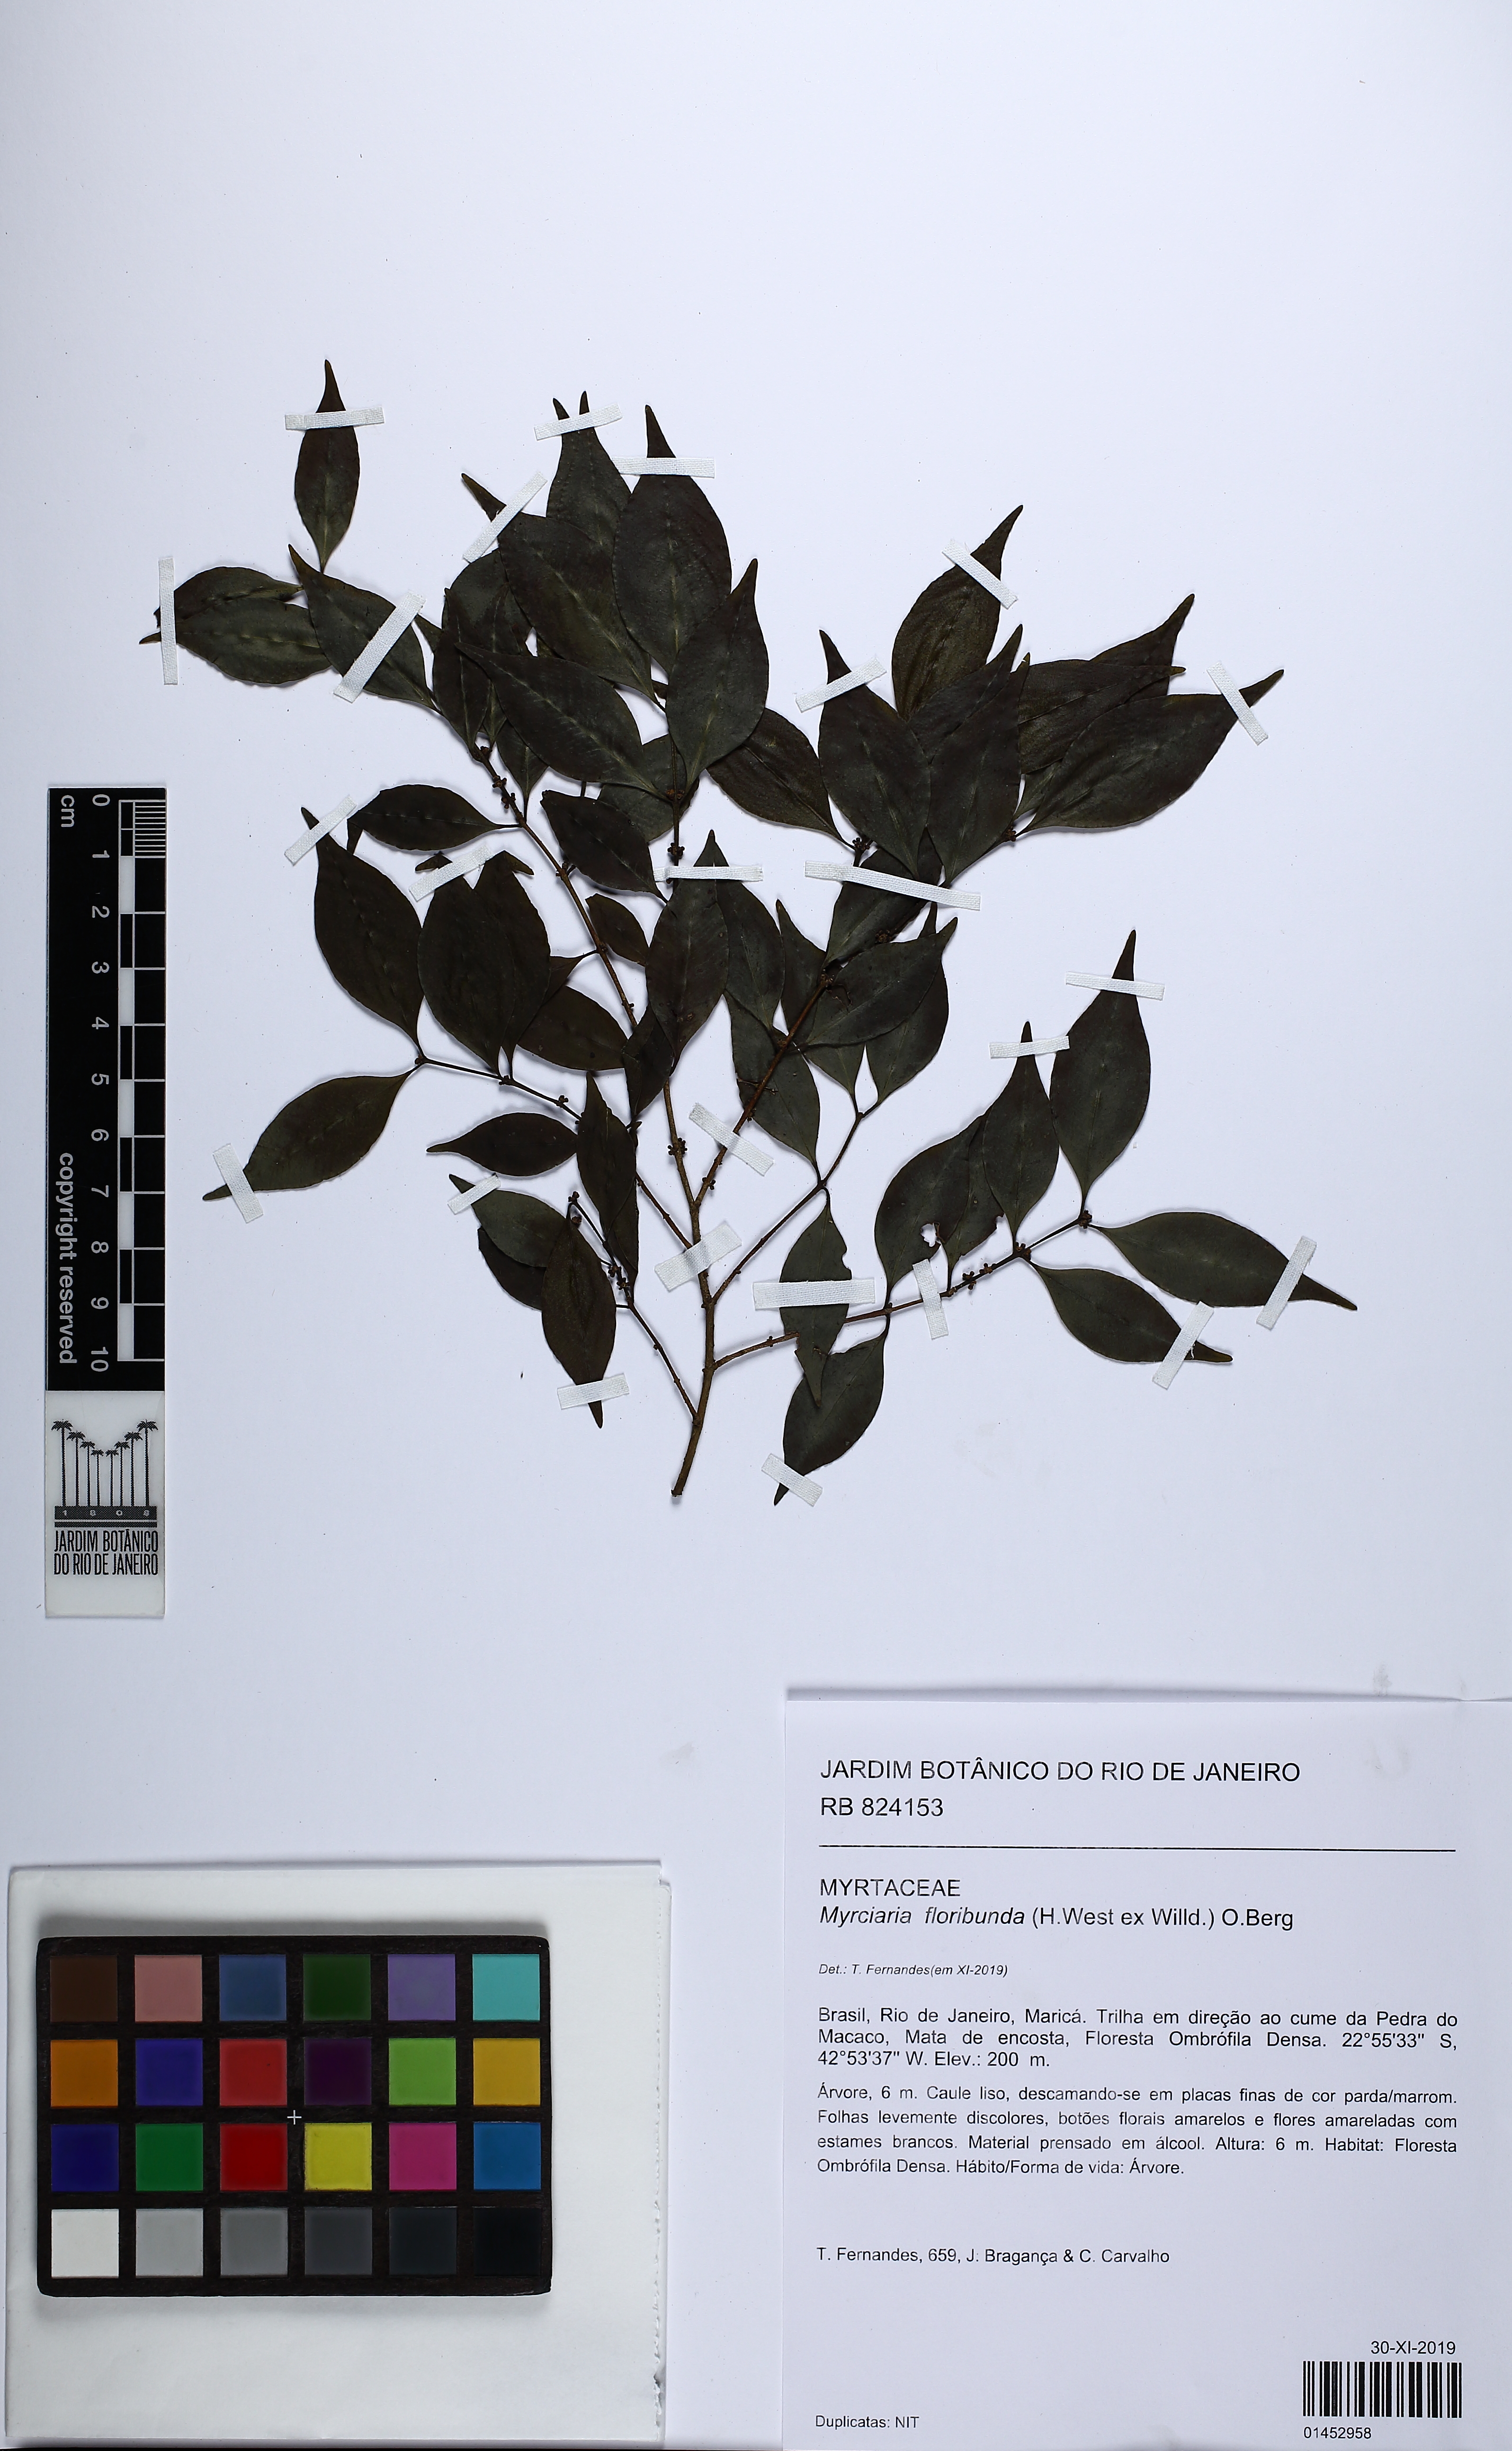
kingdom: Plantae
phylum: Tracheophyta
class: Magnoliopsida
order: Myrtales
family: Myrtaceae
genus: Myrciaria
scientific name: Myrciaria floribunda
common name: Guavaberry
